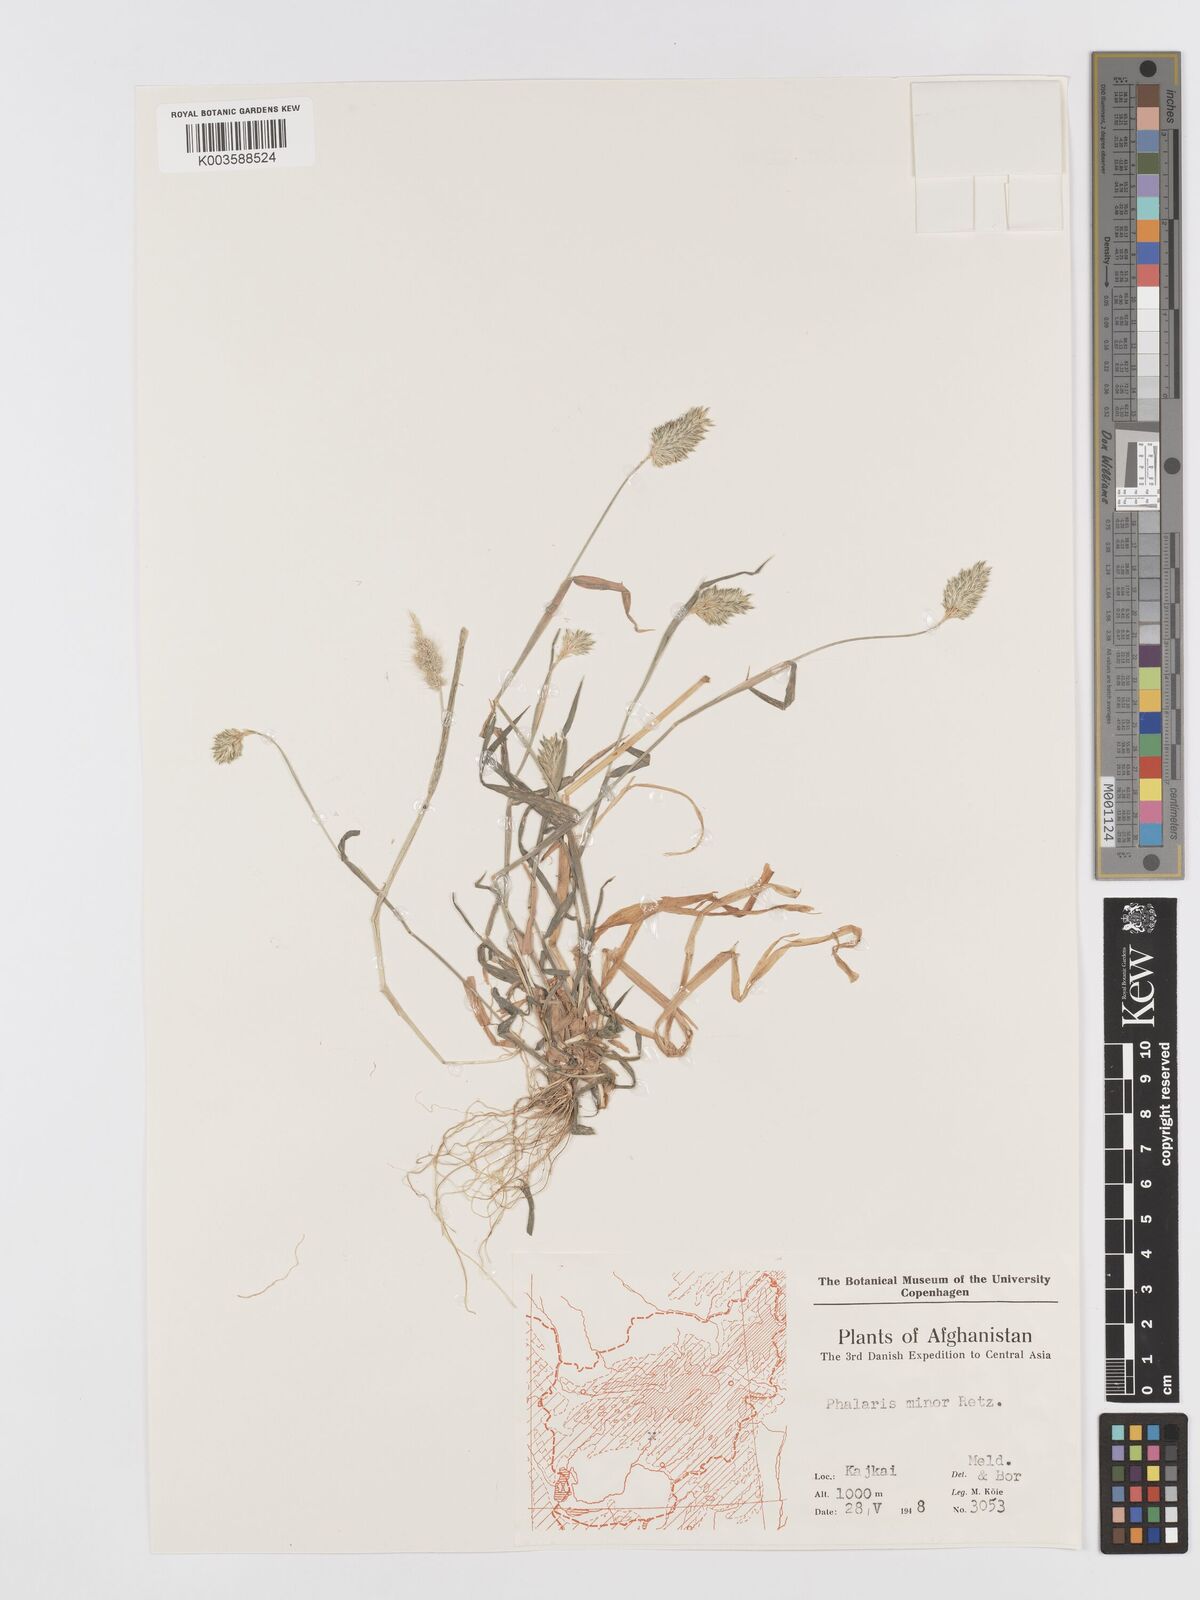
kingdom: Plantae
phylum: Tracheophyta
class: Liliopsida
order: Poales
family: Poaceae
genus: Phalaris
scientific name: Phalaris minor
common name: Littleseed canarygrass
